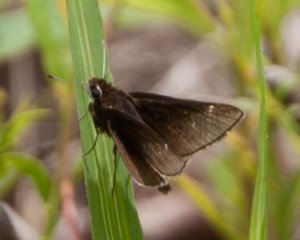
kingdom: Animalia
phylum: Arthropoda
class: Insecta
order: Lepidoptera
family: Hesperiidae
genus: Atrytonopsis
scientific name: Atrytonopsis hianna
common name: Dusted Skipper
